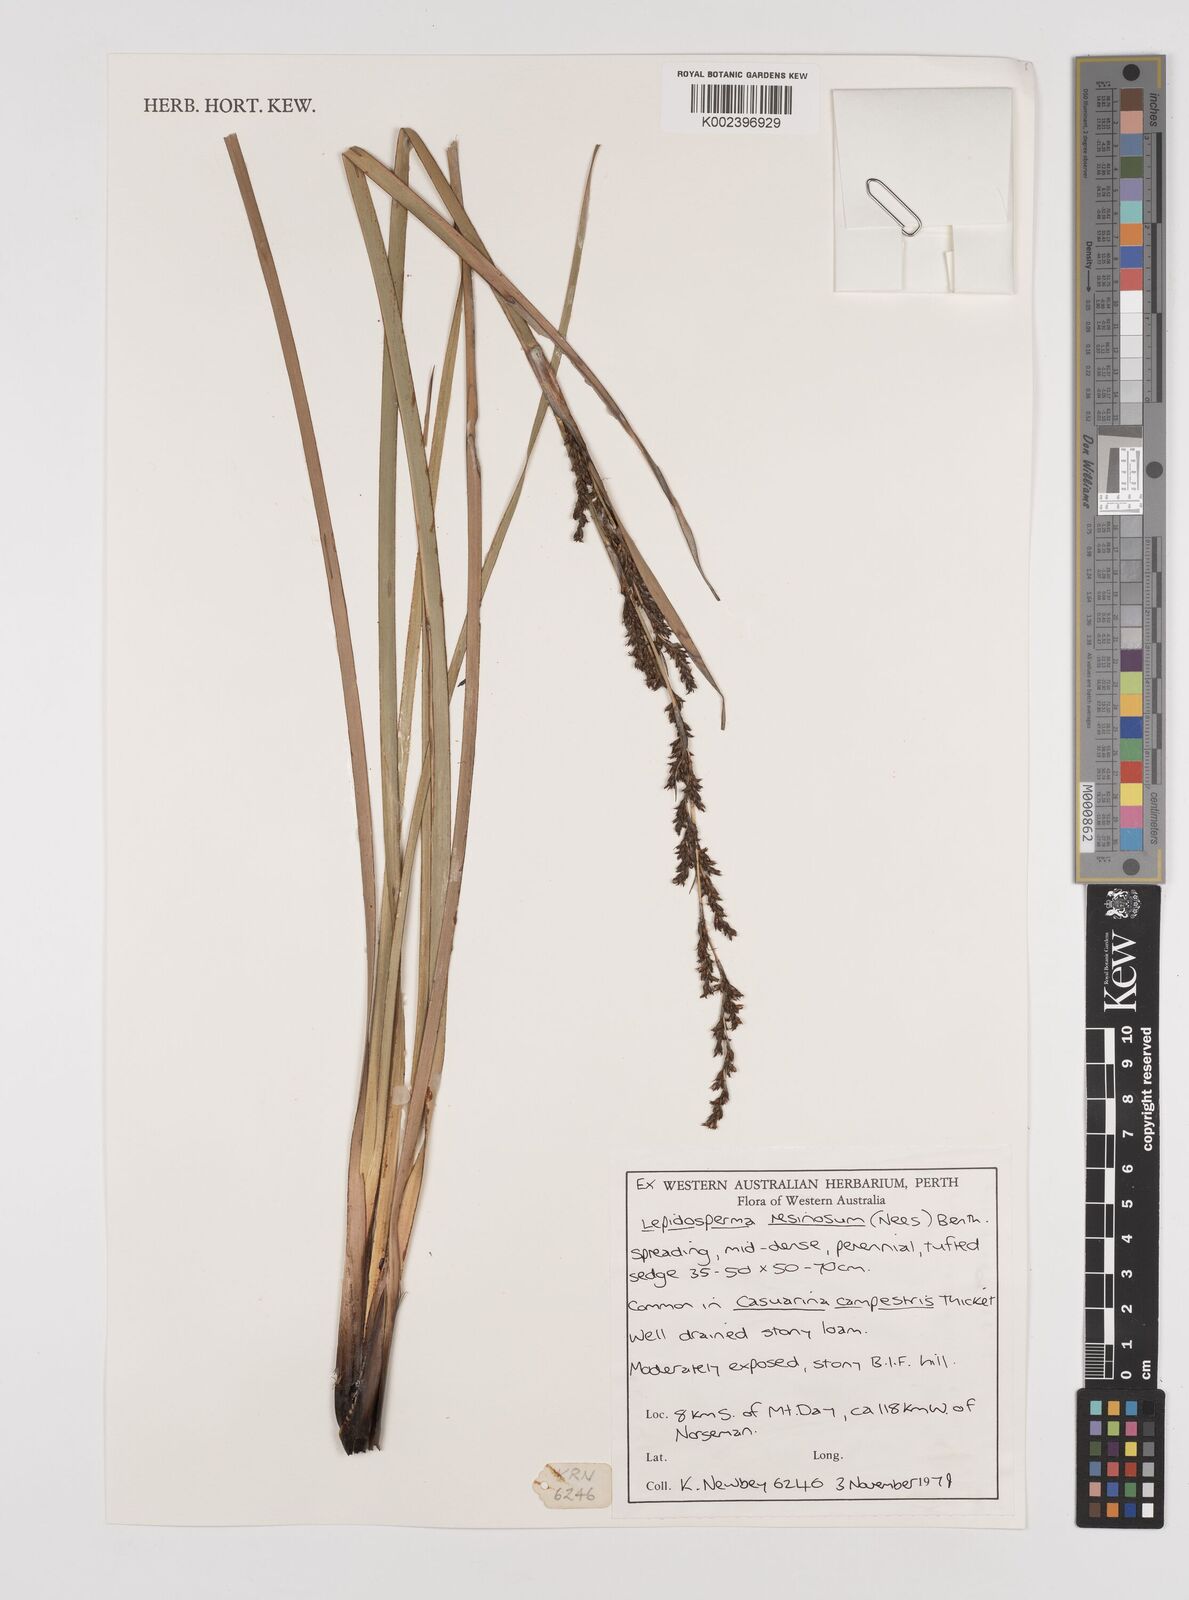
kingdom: Plantae
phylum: Tracheophyta
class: Liliopsida
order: Poales
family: Cyperaceae
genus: Lepidosperma
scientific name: Lepidosperma resinosum
